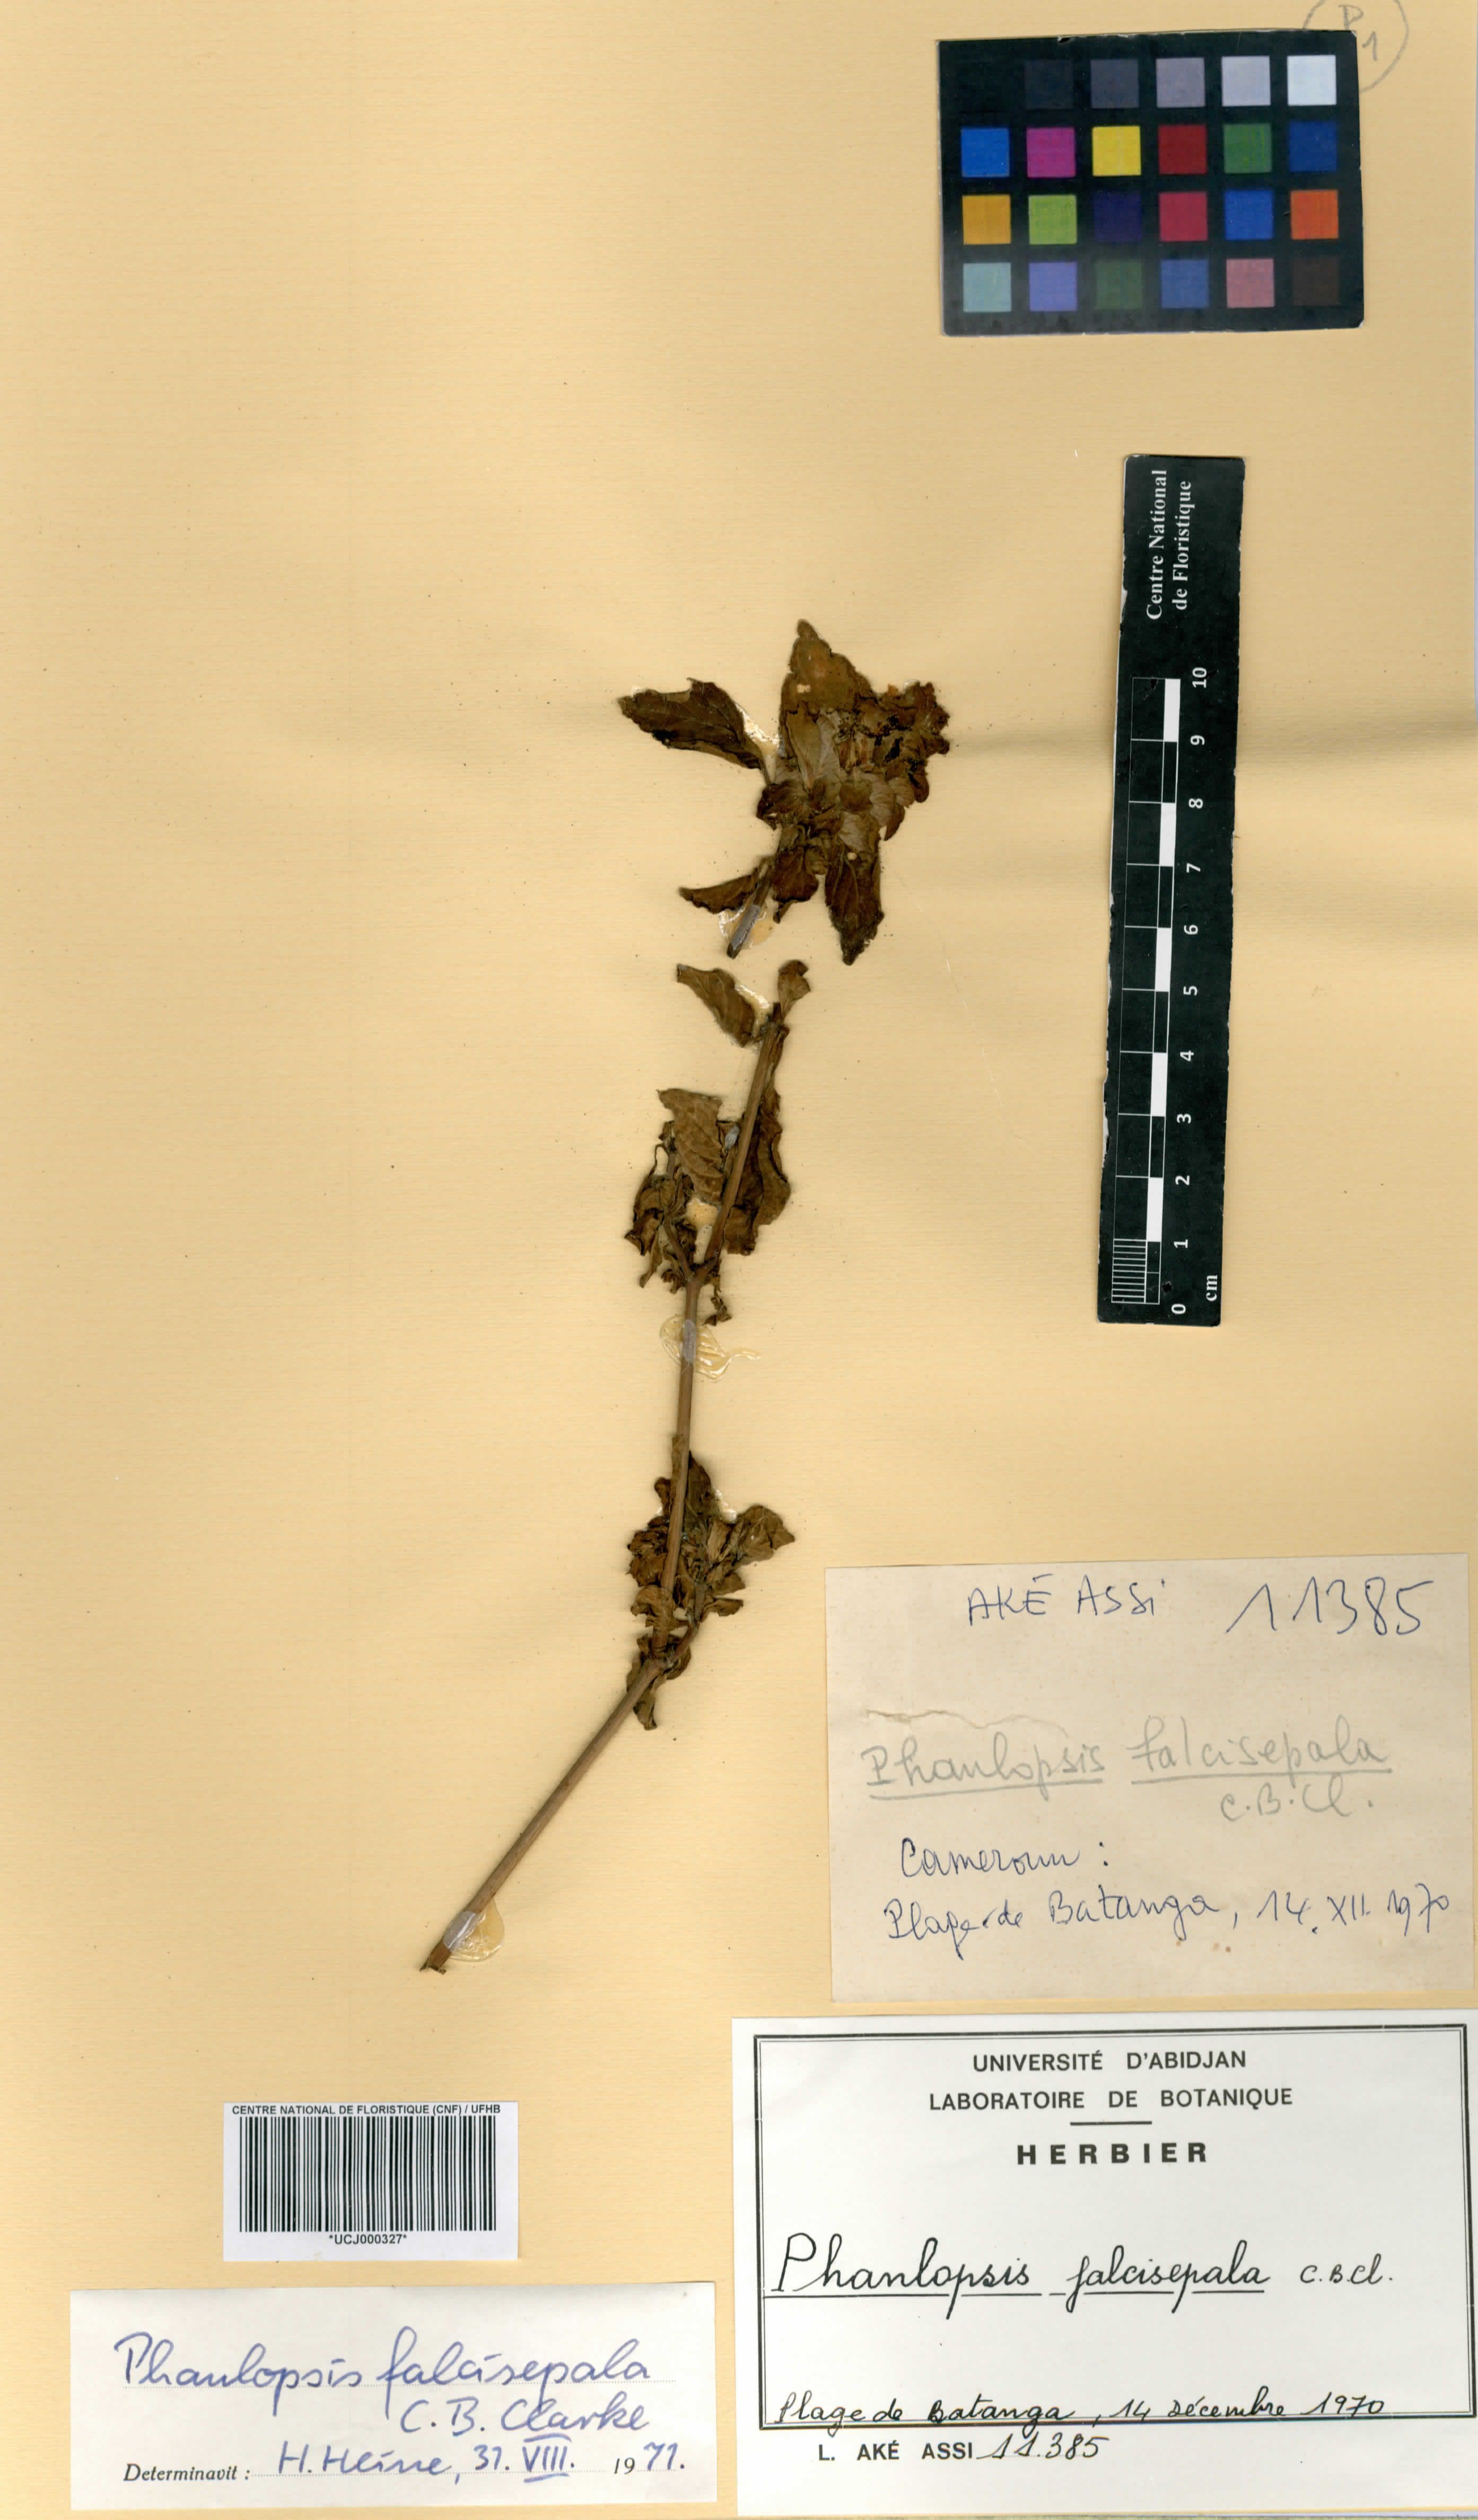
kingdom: Plantae
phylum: Tracheophyta
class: Magnoliopsida
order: Lamiales
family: Acanthaceae
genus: Phaulopsis
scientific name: Phaulopsis ciliata
